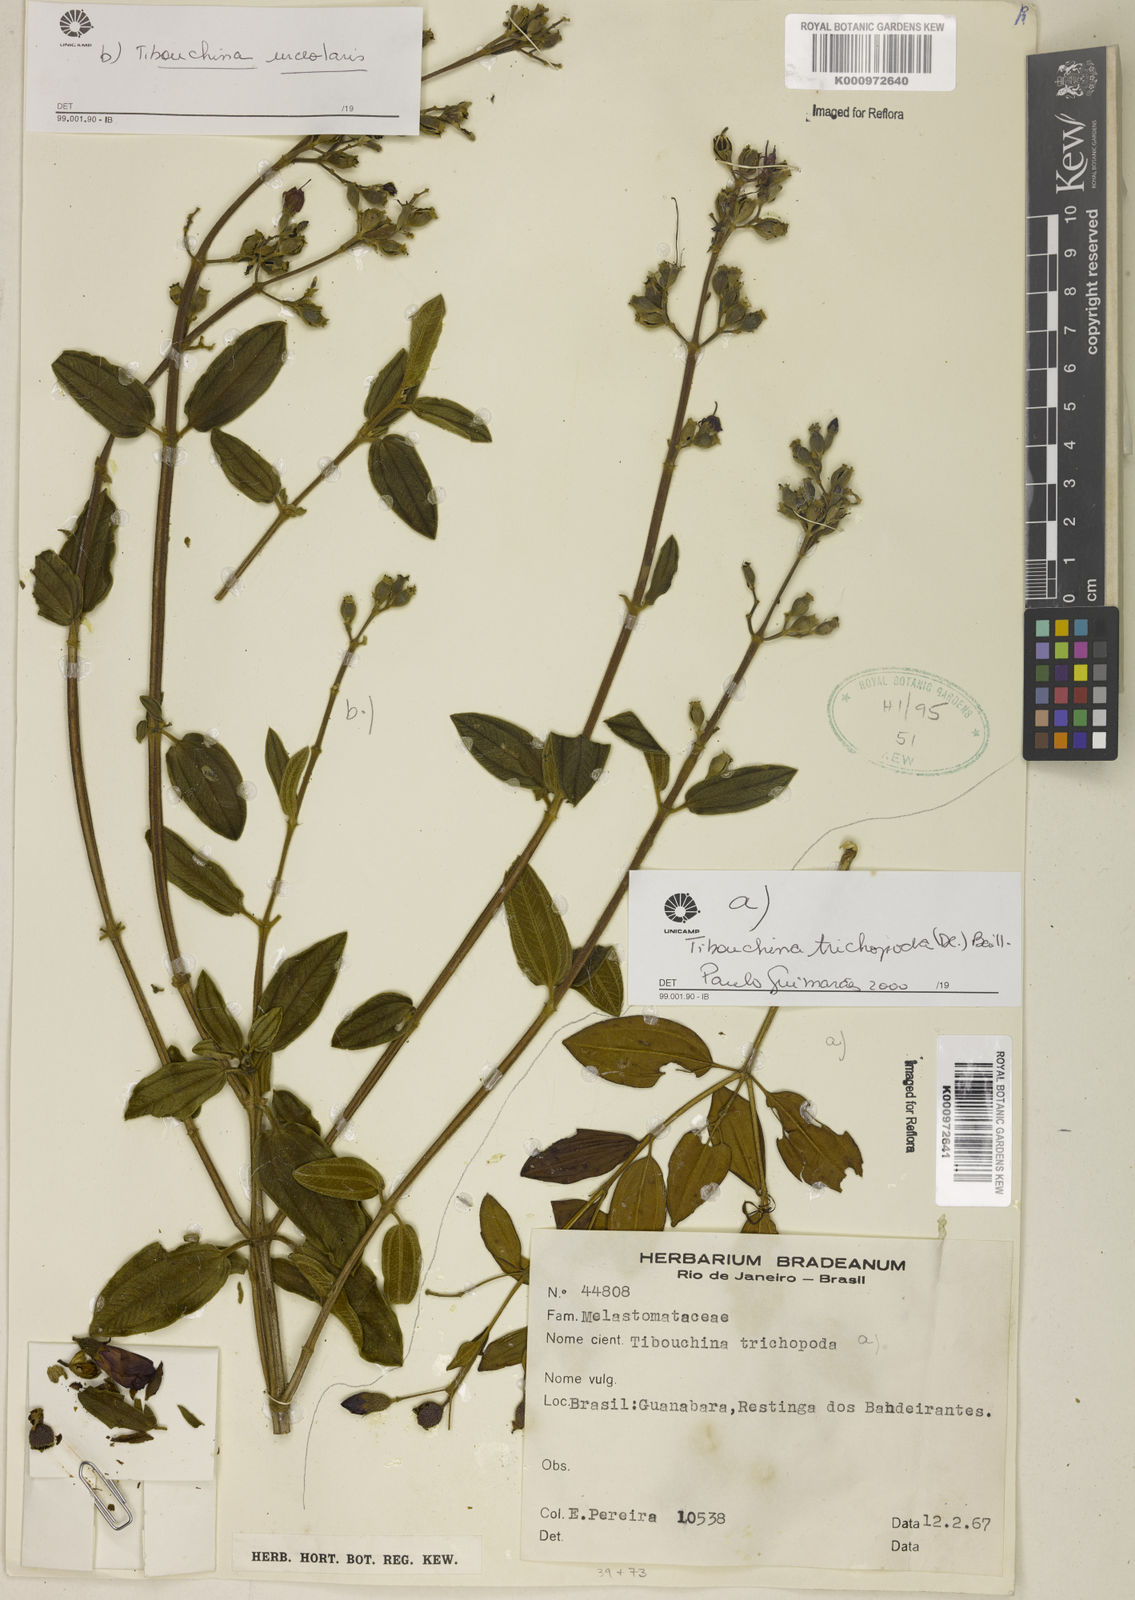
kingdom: Plantae
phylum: Tracheophyta
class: Magnoliopsida
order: Myrtales
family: Melastomataceae
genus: Pleroma
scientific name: Pleroma urceolare
